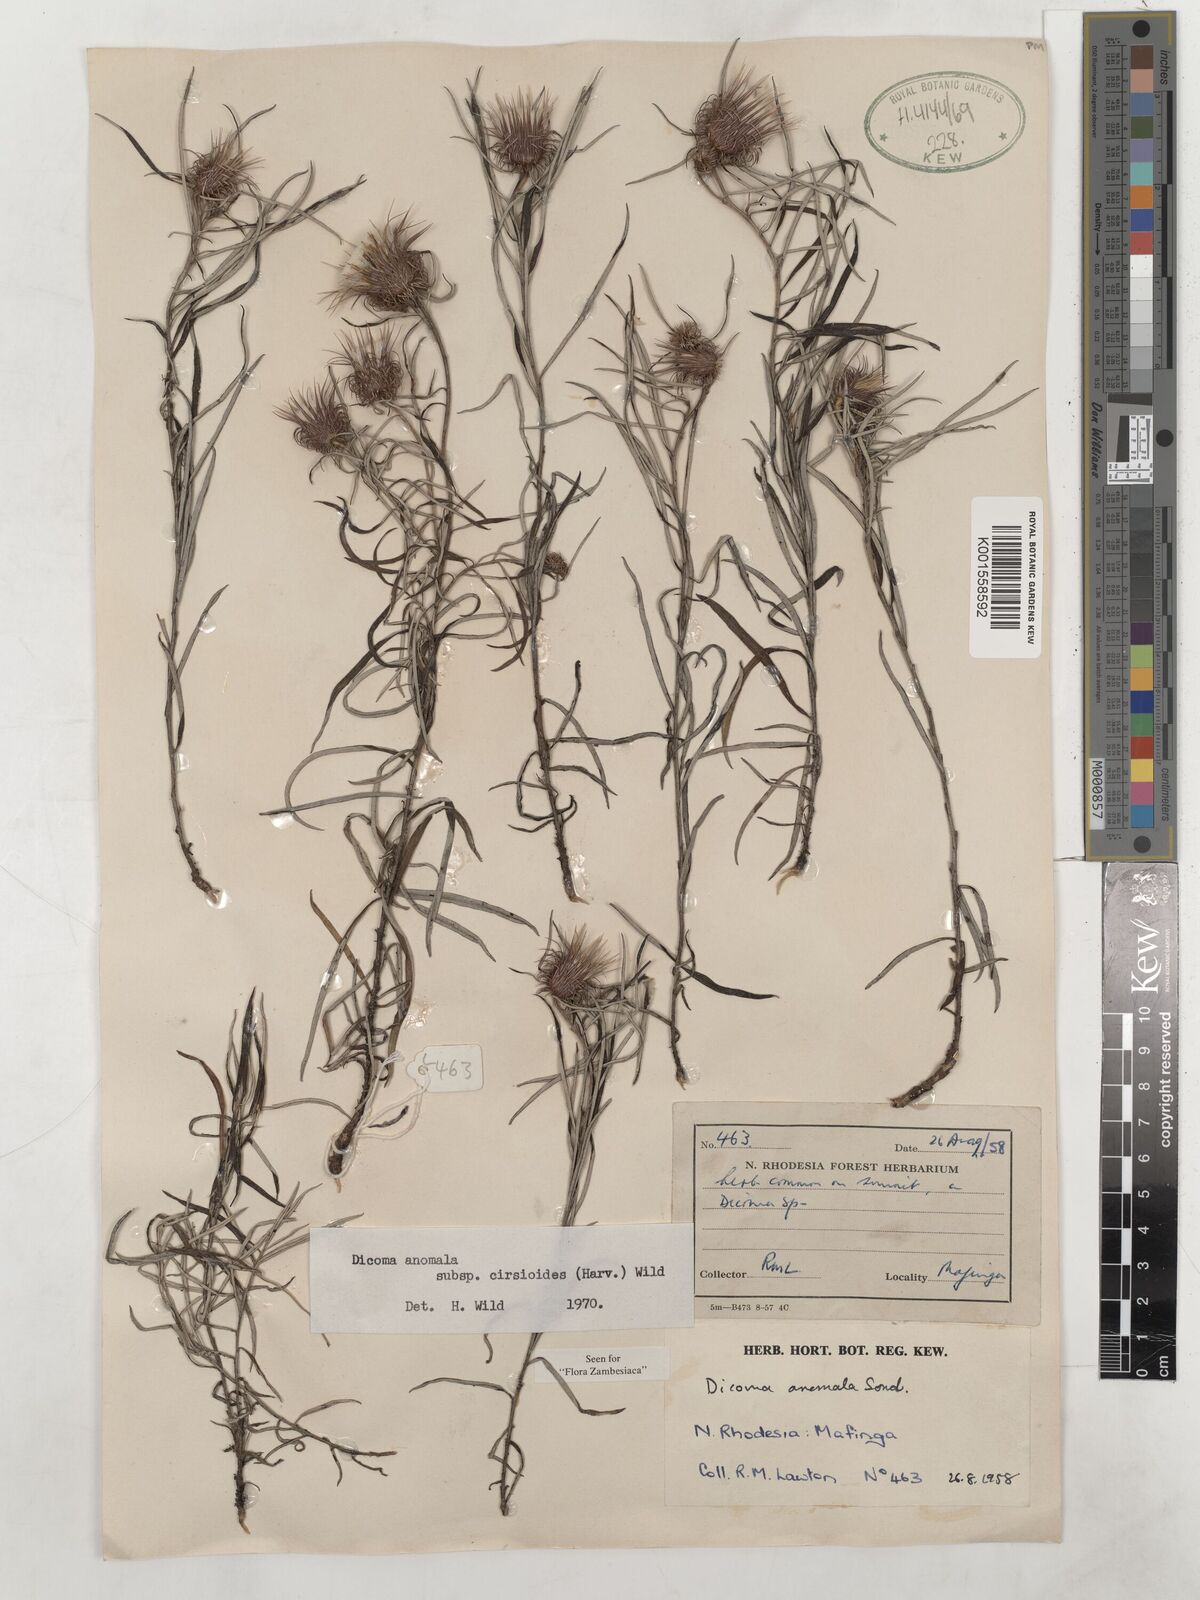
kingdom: Plantae
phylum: Tracheophyta
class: Magnoliopsida
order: Asterales
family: Asteraceae
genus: Dicoma
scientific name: Dicoma anomala
